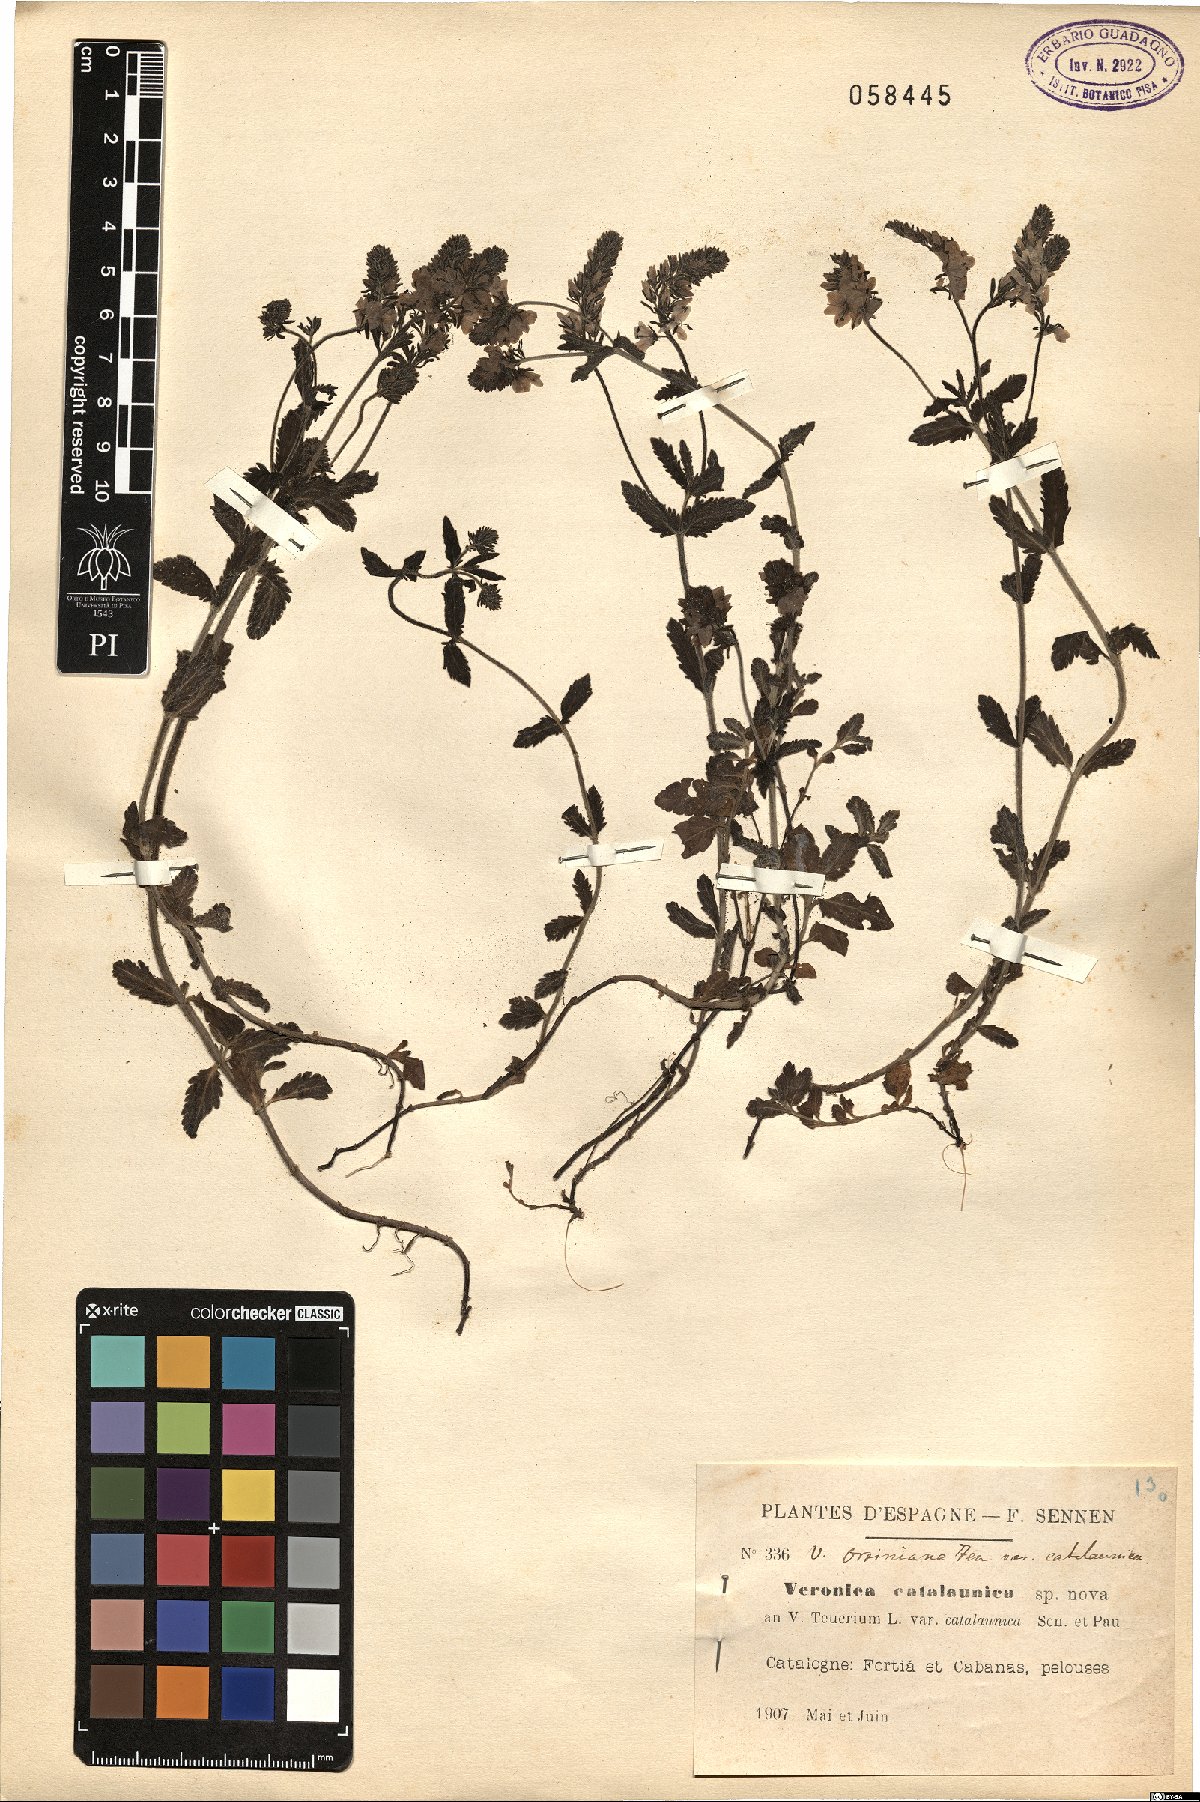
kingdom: Plantae
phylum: Tracheophyta
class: Magnoliopsida
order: Lamiales
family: Plantaginaceae
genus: Veronica
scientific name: Veronica teucrium
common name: Large speedwell
